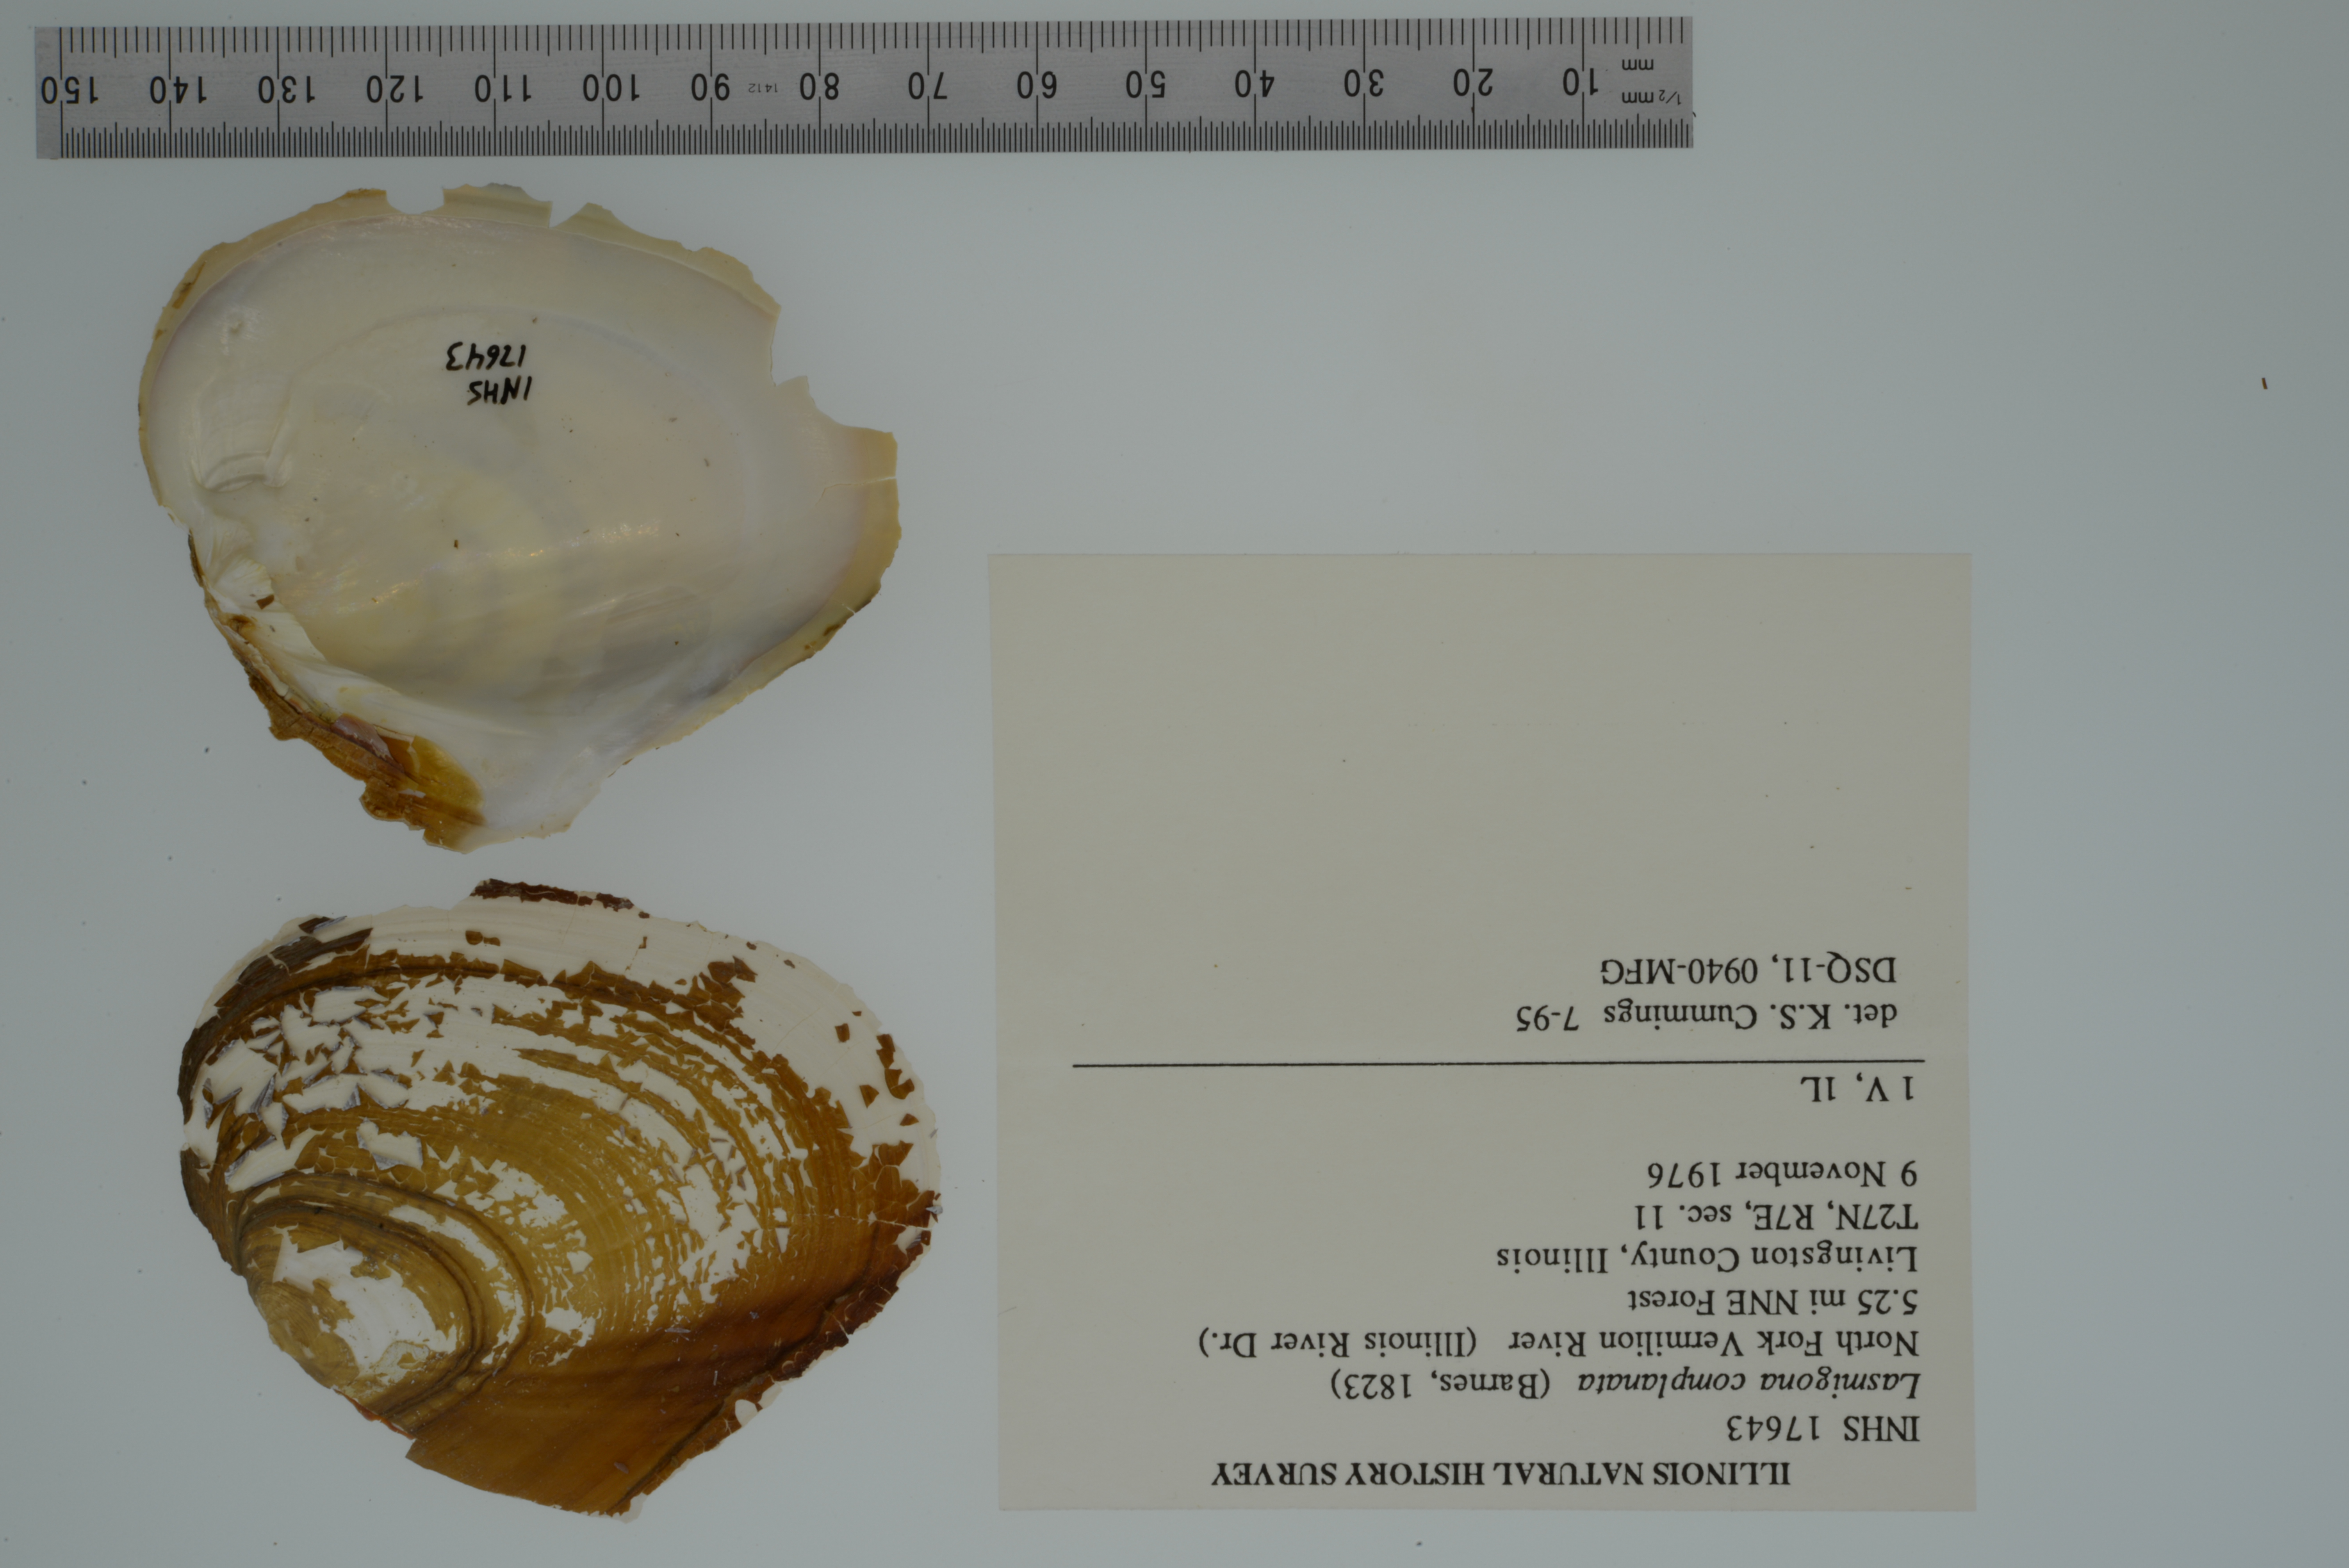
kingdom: Animalia
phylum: Mollusca
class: Bivalvia
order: Unionida
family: Unionidae
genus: Lasmigona
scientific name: Lasmigona complanata
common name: White heelsplitter
